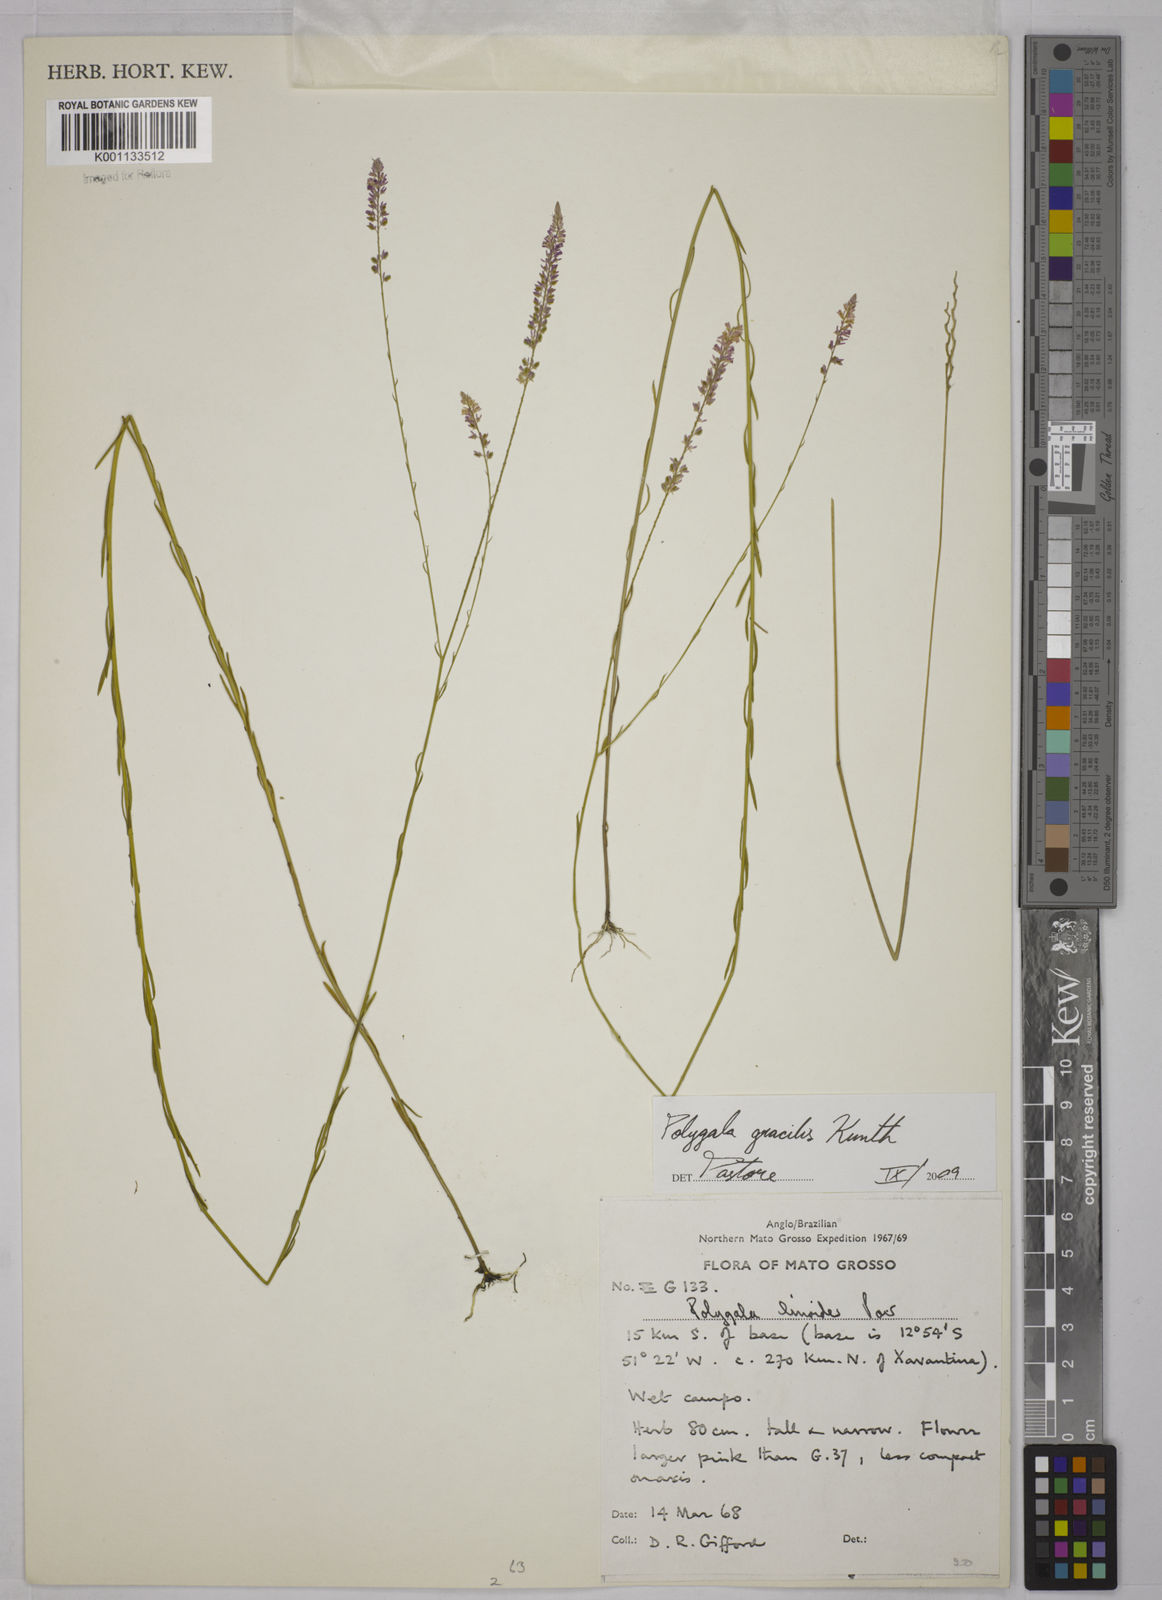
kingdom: Plantae
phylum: Tracheophyta
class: Magnoliopsida
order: Fabales
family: Polygalaceae
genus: Polygala
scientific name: Polygala gracilis
